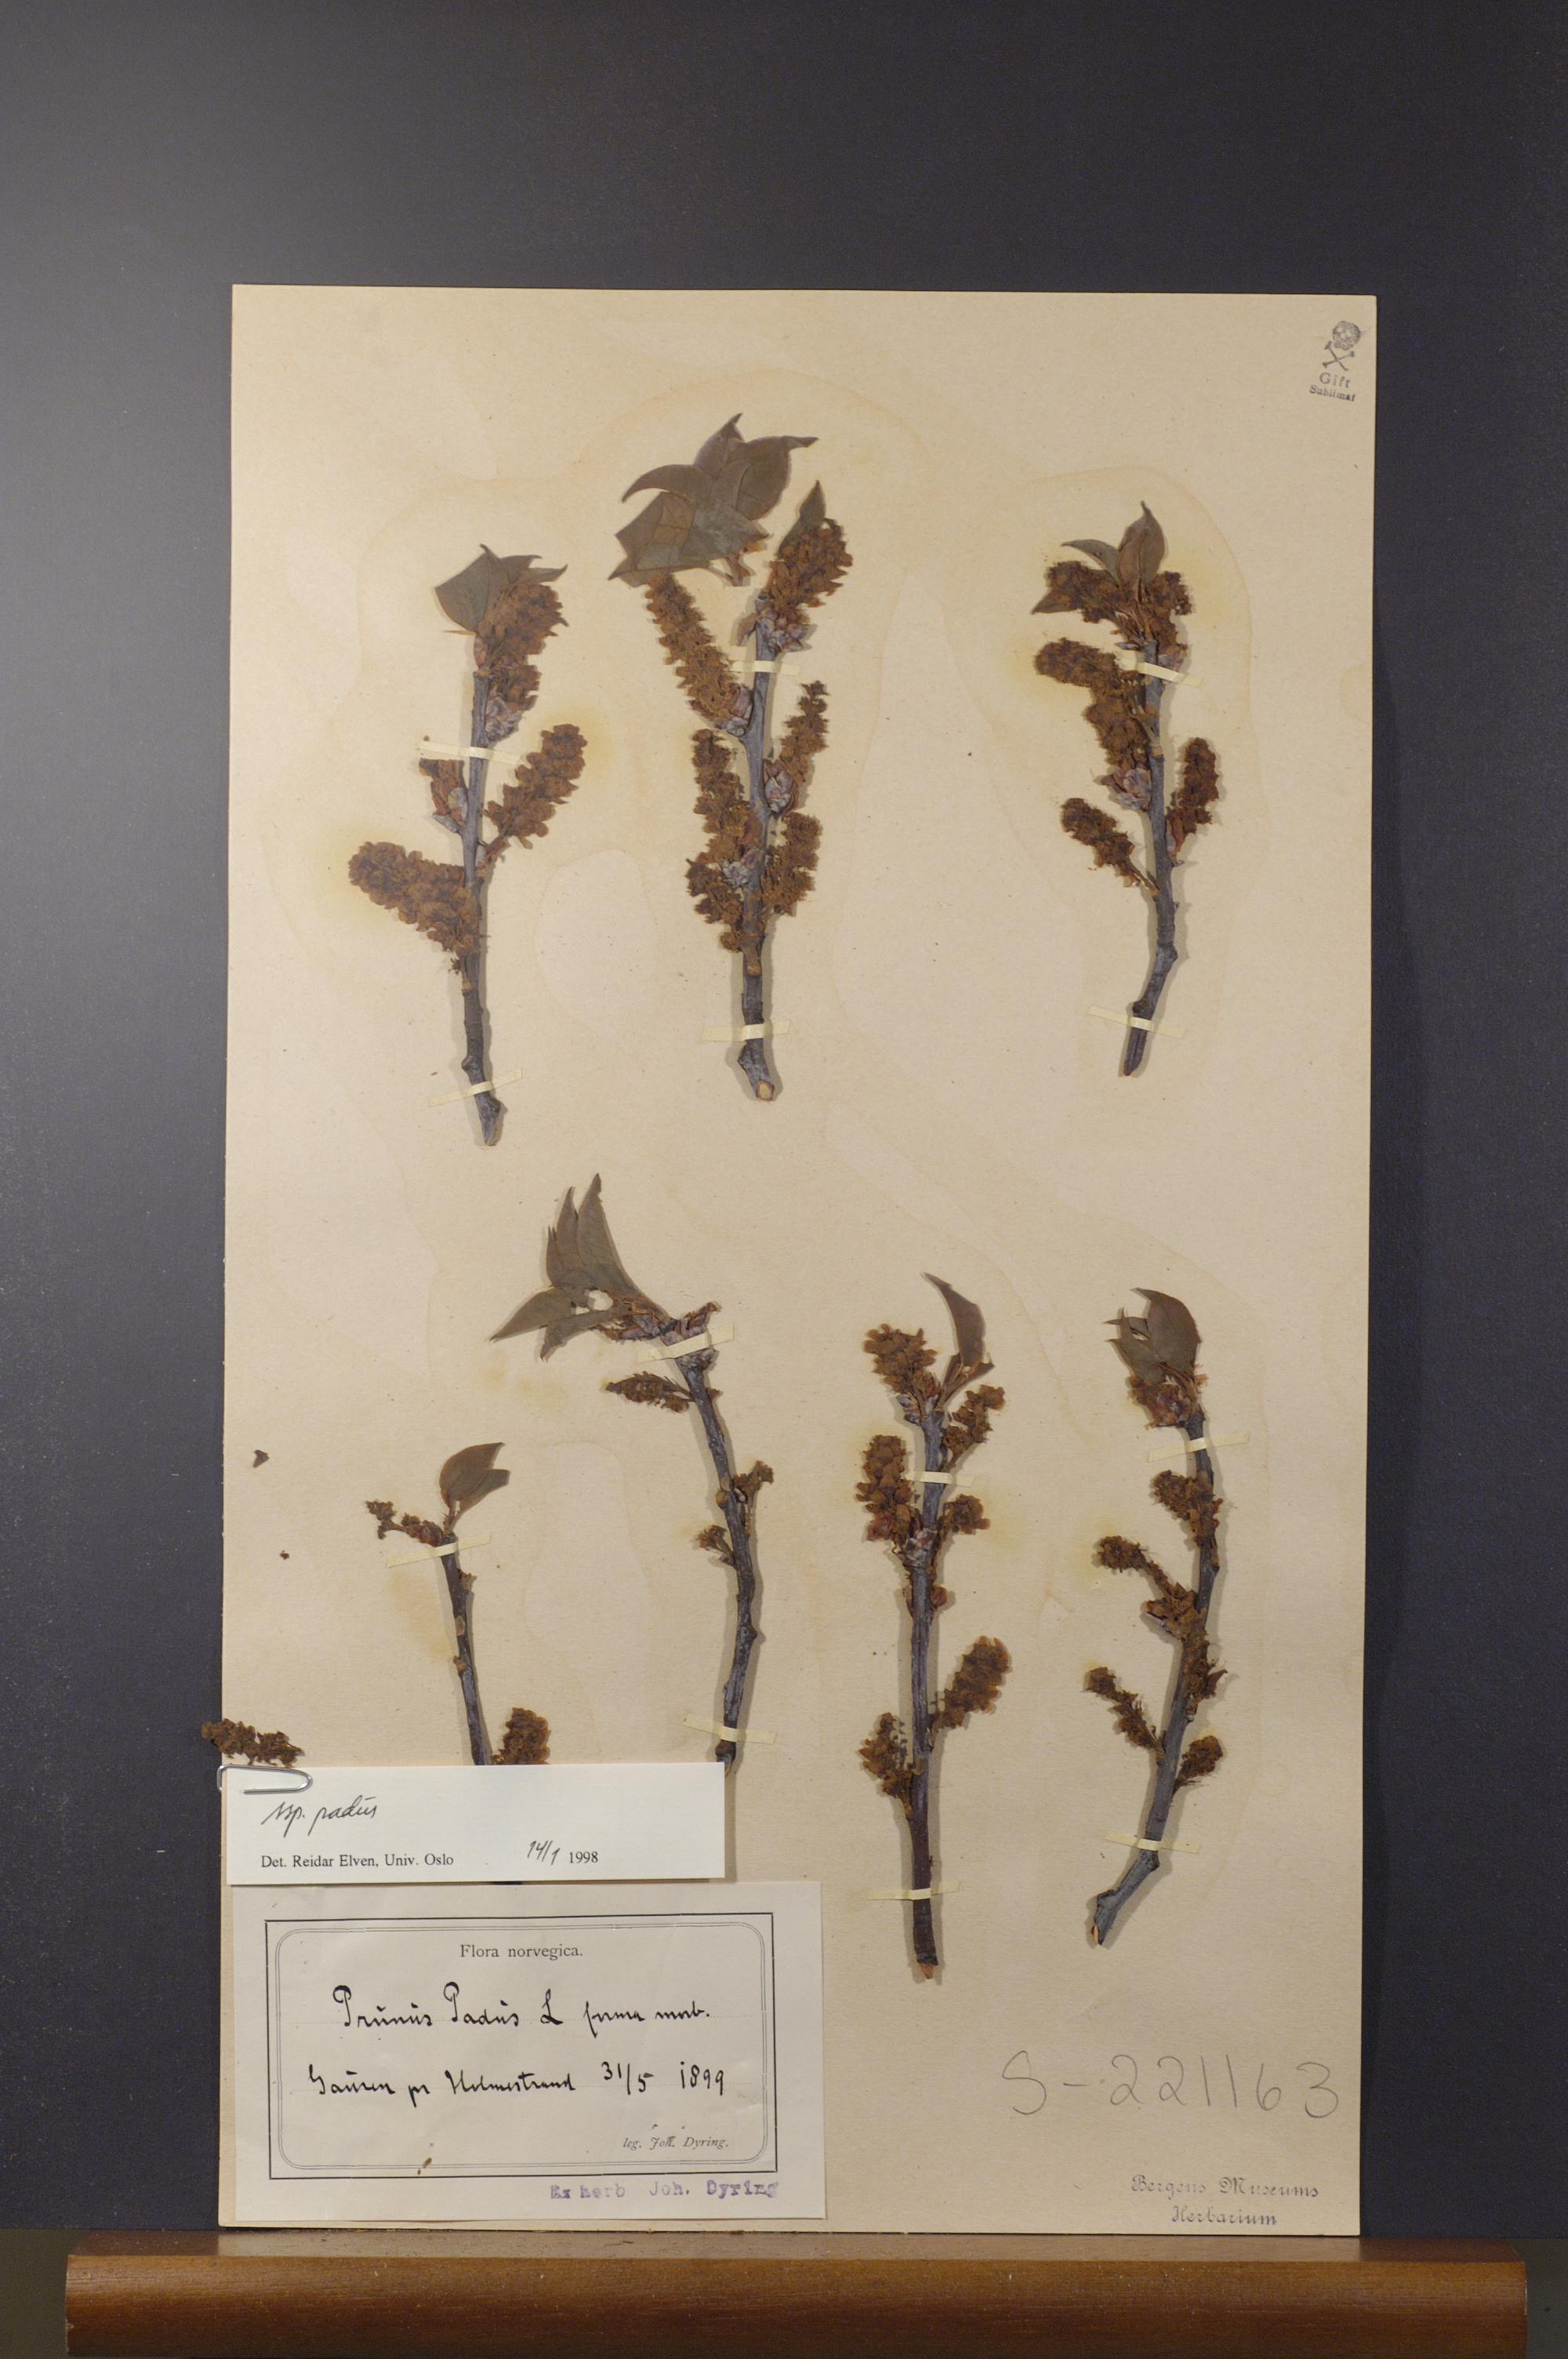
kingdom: Plantae
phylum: Tracheophyta
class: Magnoliopsida
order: Rosales
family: Rosaceae
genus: Prunus
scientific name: Prunus padus
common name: Bird cherry
